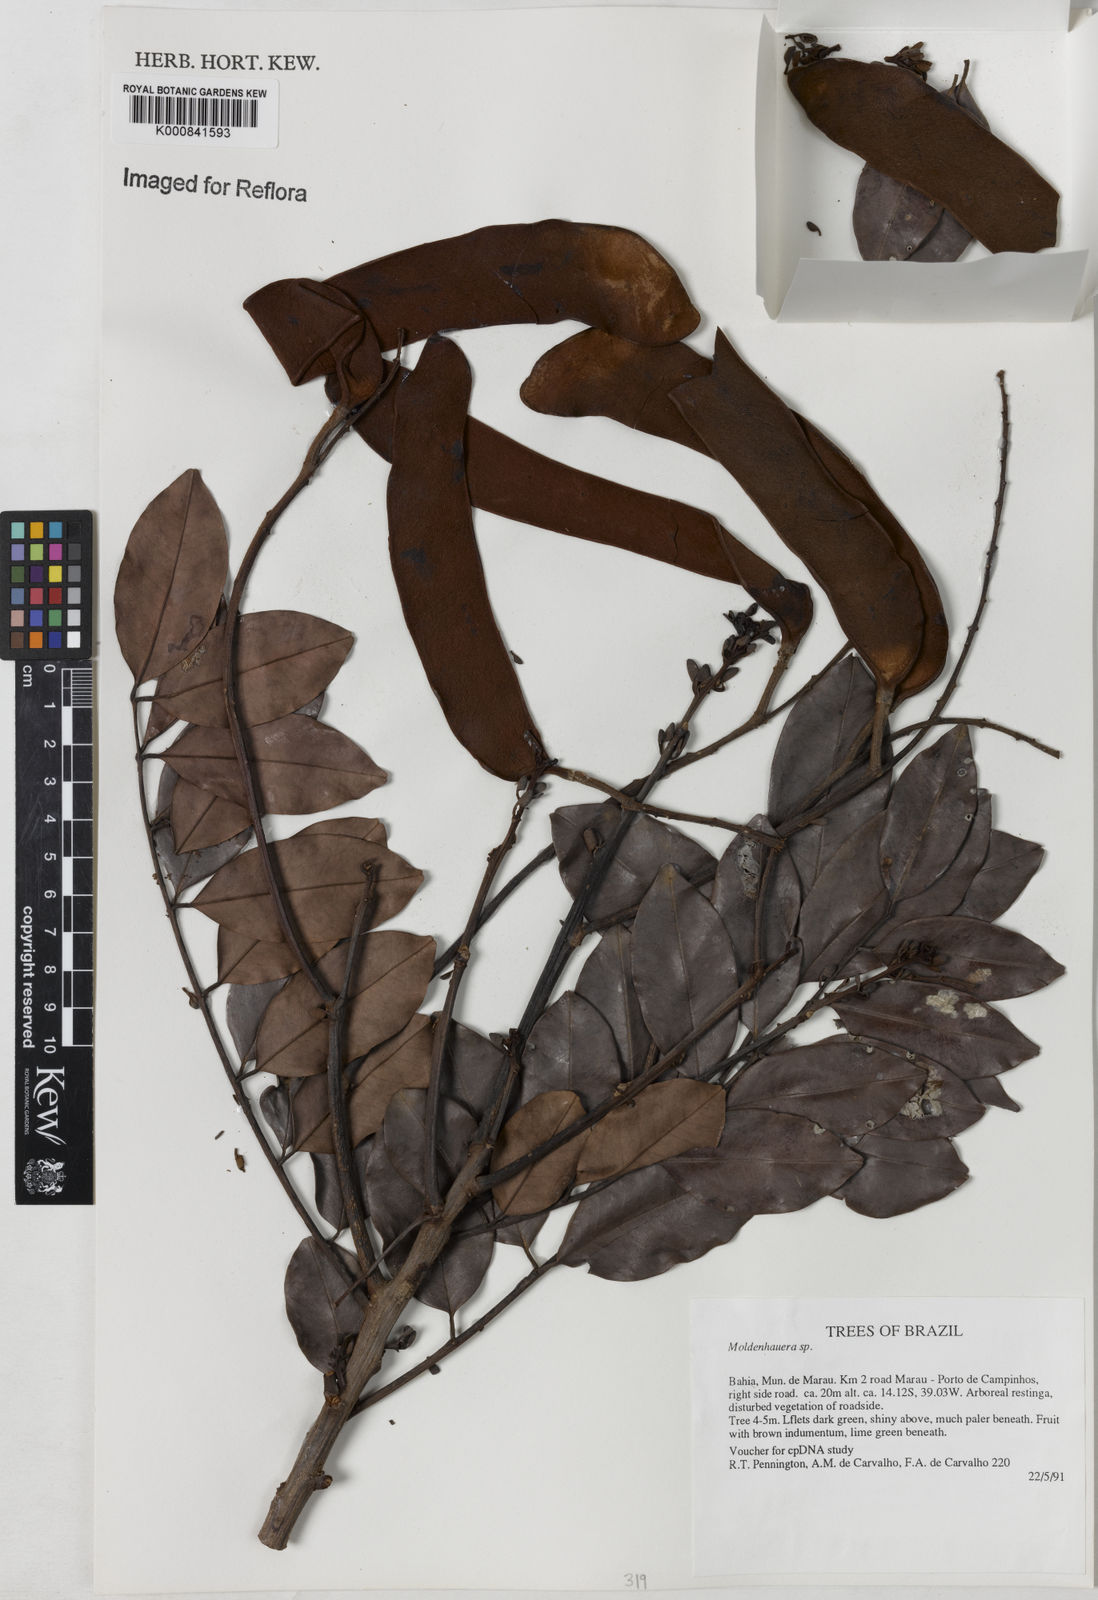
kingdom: Plantae
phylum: Tracheophyta
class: Magnoliopsida
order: Fabales
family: Fabaceae
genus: Moldenhawera
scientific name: Moldenhawera
